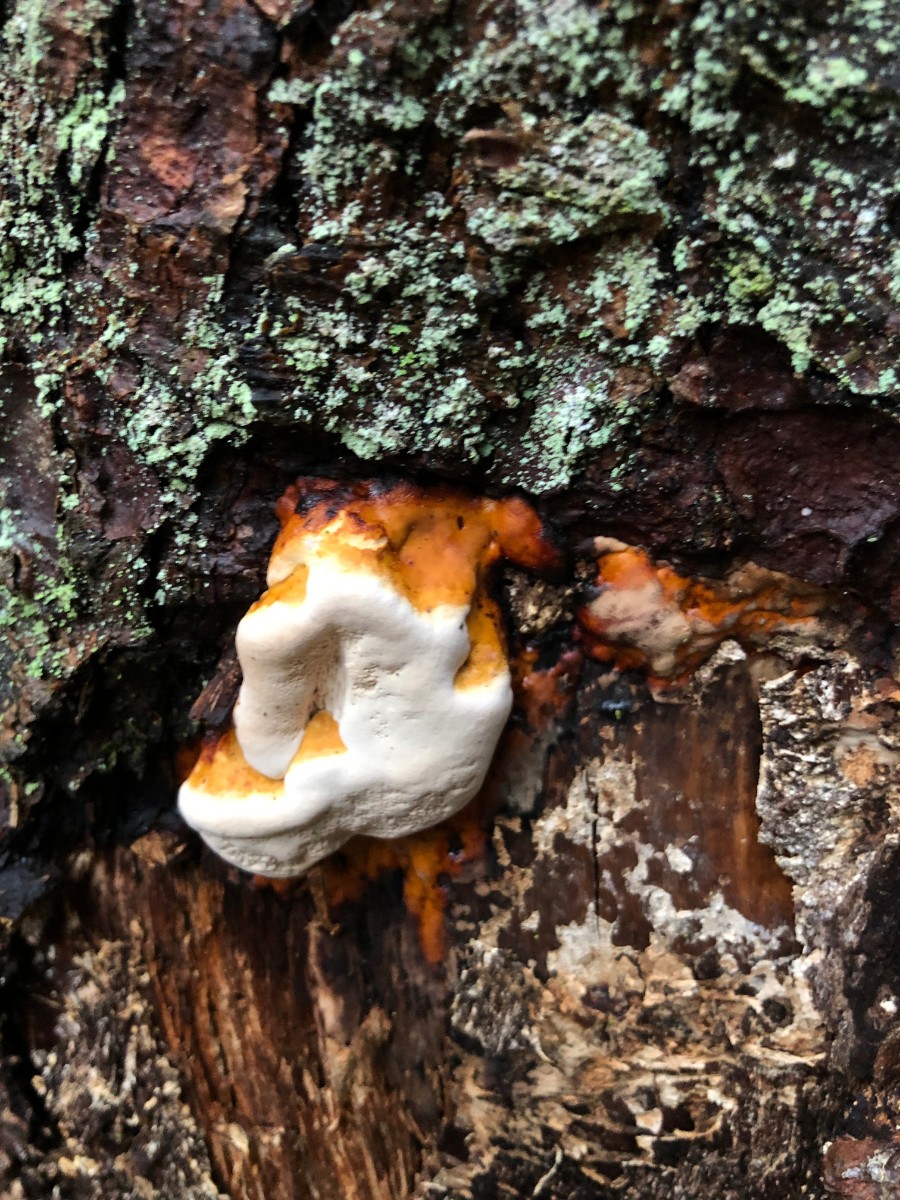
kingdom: Fungi
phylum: Basidiomycota
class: Agaricomycetes
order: Polyporales
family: Fomitopsidaceae
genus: Fomitopsis
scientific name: Fomitopsis pinicola
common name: randbæltet hovporesvamp
